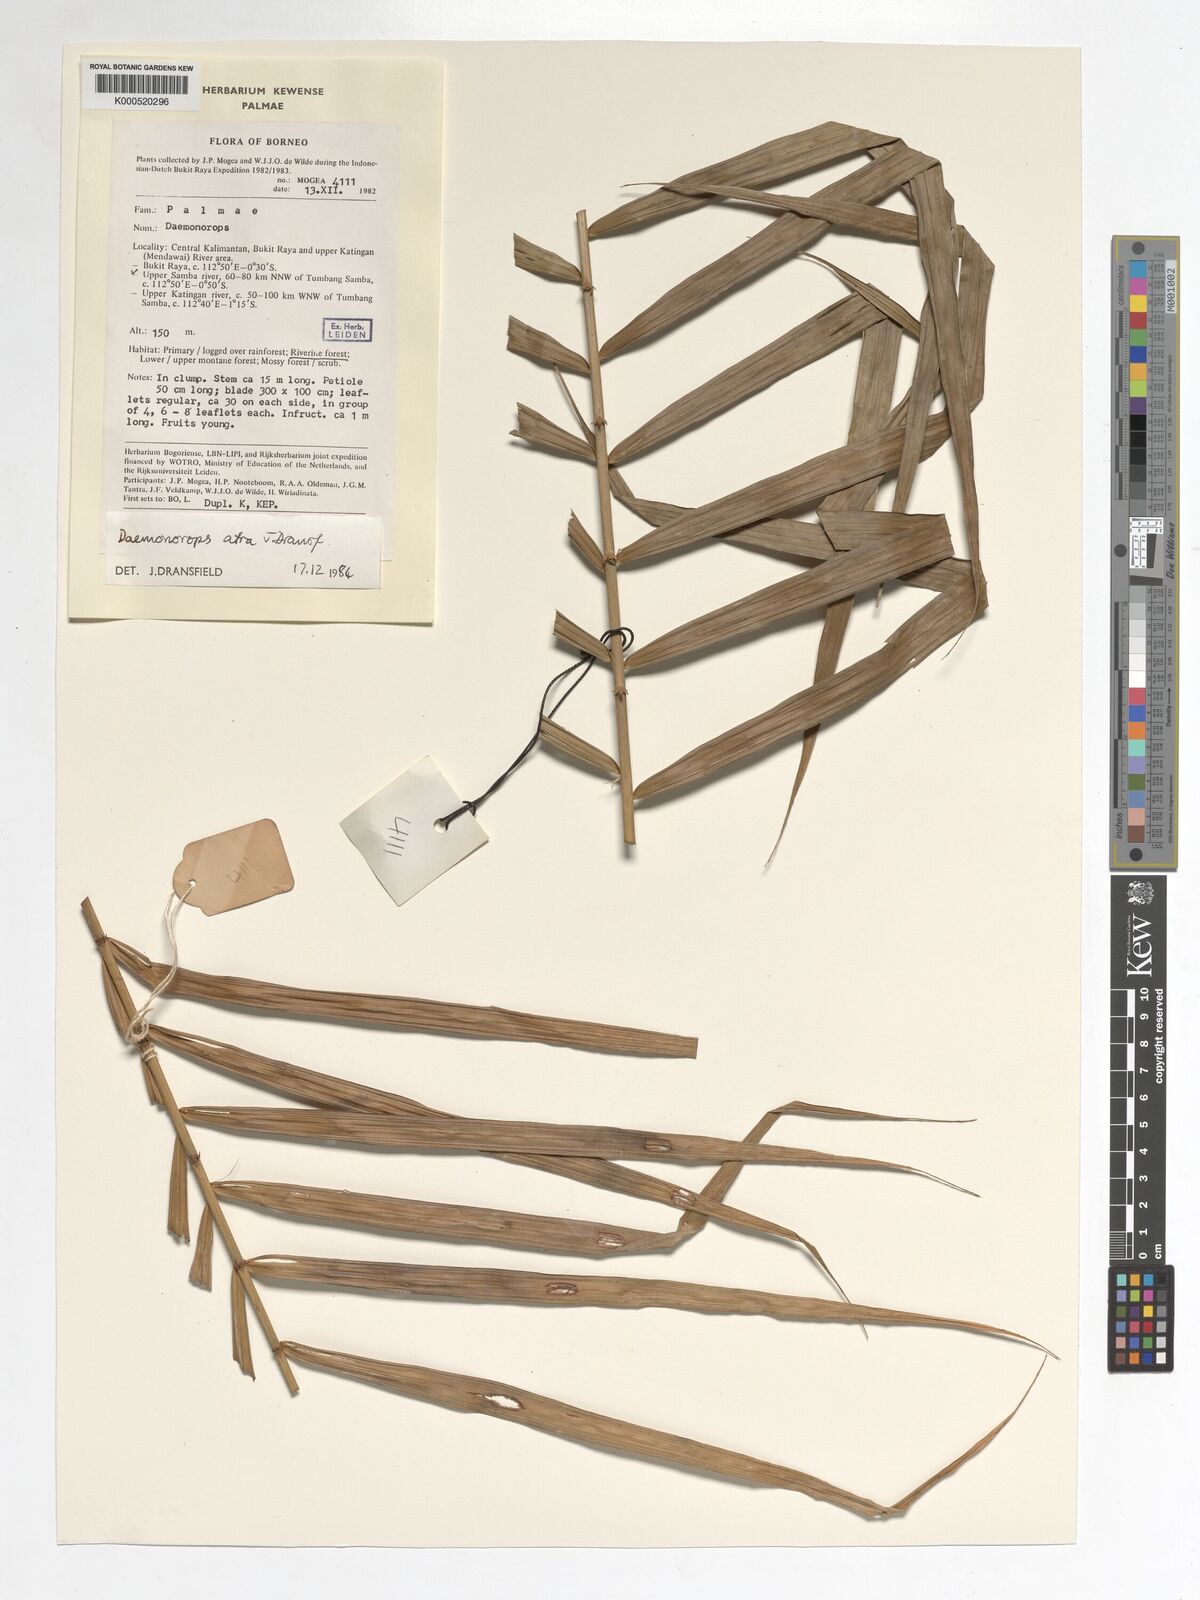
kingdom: Plantae
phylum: Tracheophyta
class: Liliopsida
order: Arecales
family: Arecaceae
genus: Calamus
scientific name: Calamus ater
